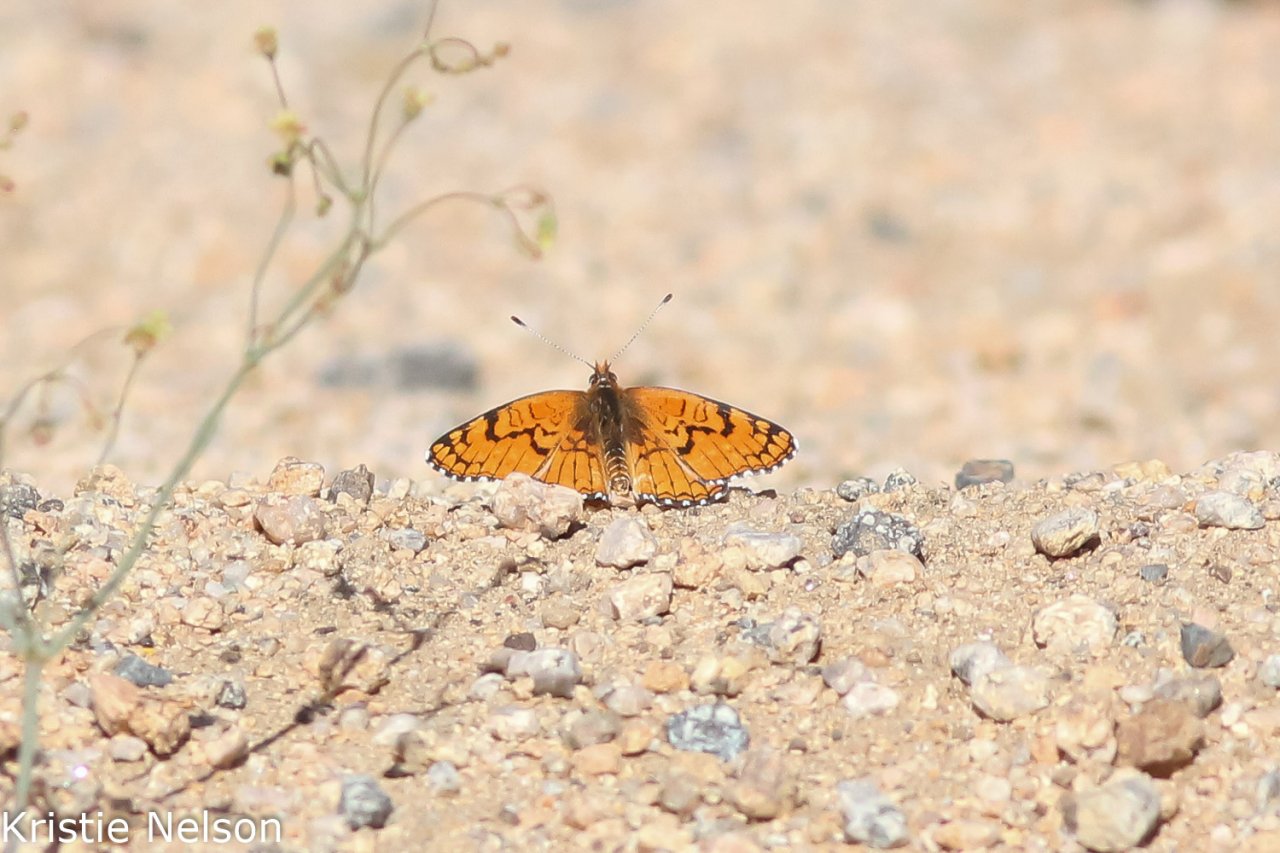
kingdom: Animalia
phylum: Arthropoda
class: Insecta
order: Lepidoptera
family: Nymphalidae
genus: Chlosyne
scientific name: Chlosyne acastus
